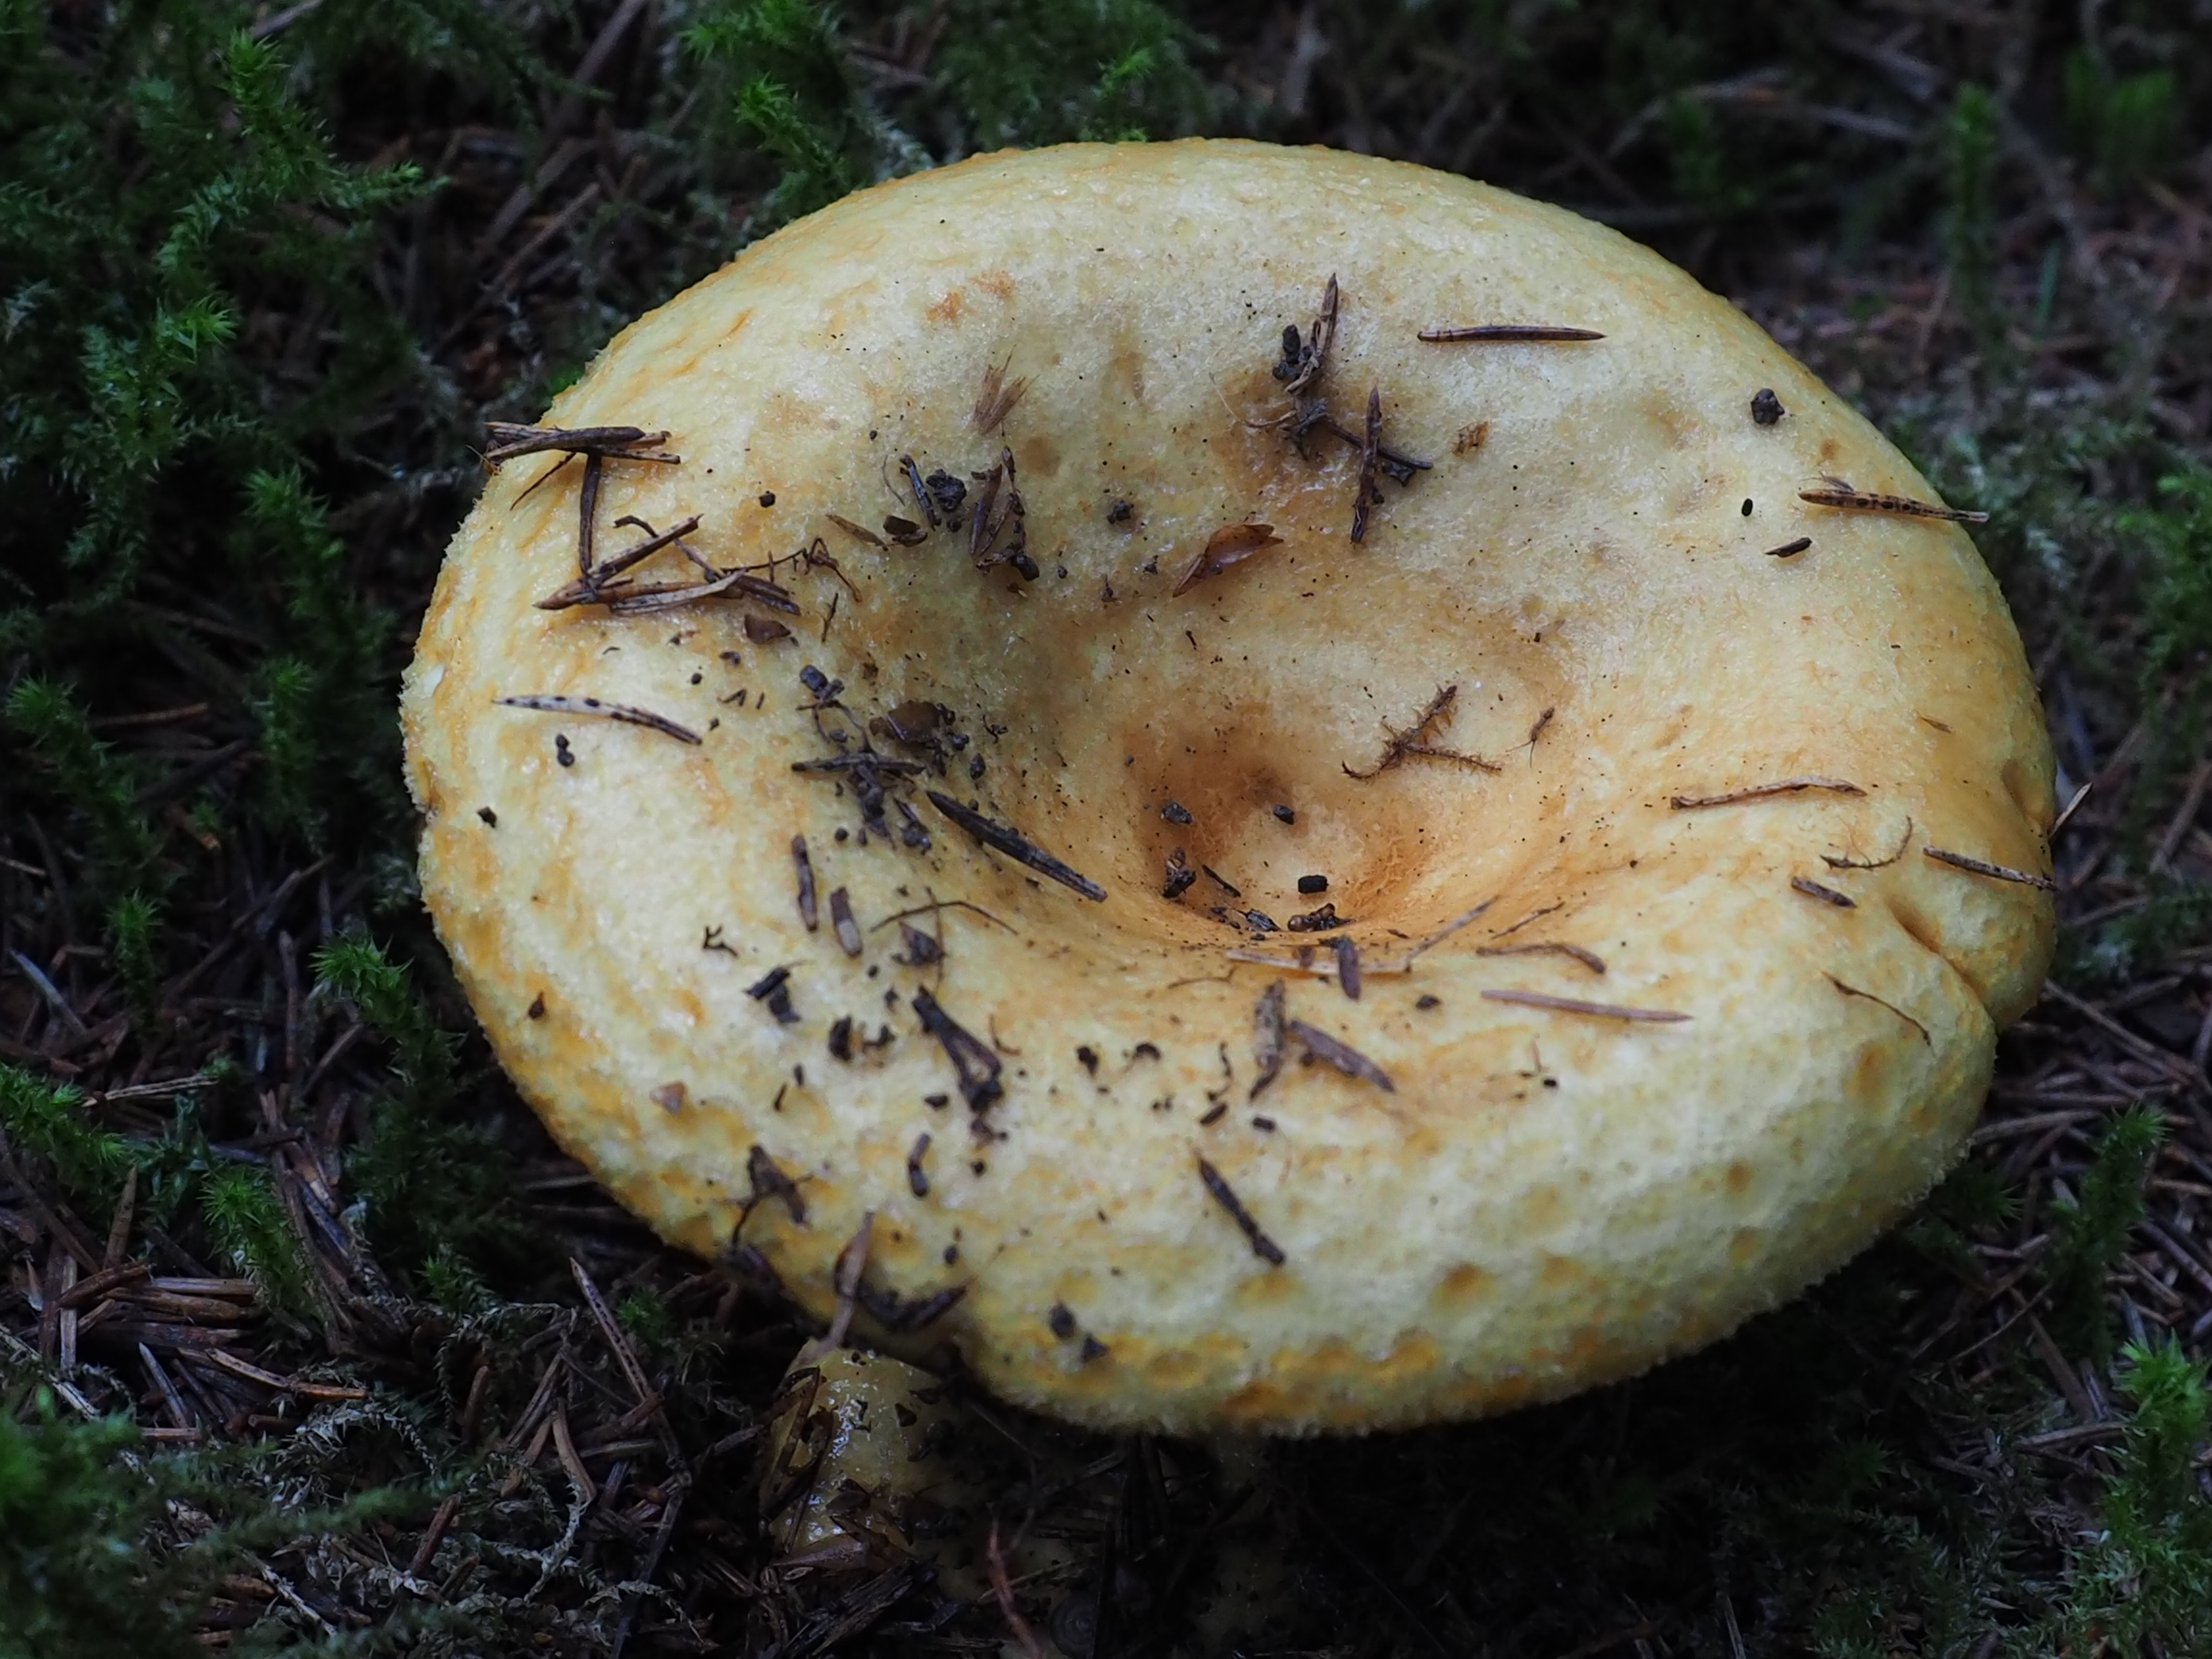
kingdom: Fungi
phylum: Basidiomycota
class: Agaricomycetes
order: Russulales
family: Russulaceae
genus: Lactarius
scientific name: Lactarius scrobiculatus
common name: Spotted milkcap
